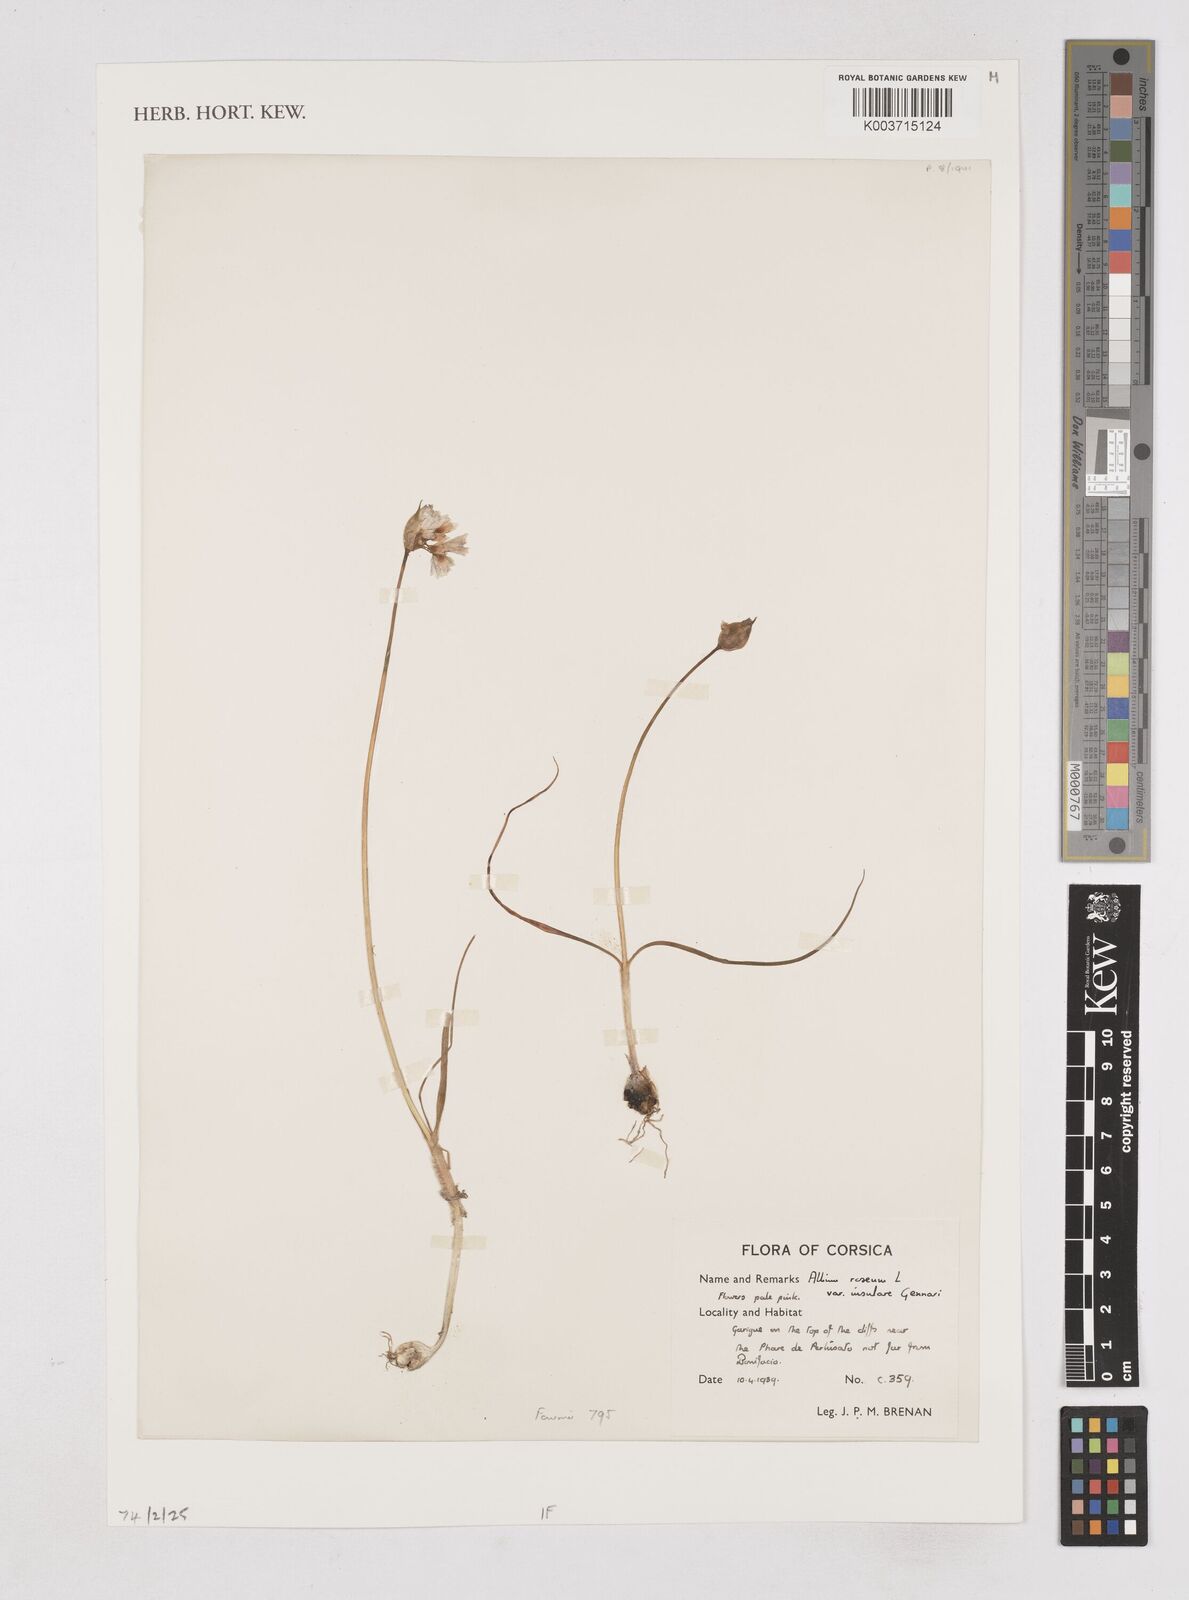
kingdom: Plantae
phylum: Tracheophyta
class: Liliopsida
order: Asparagales
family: Amaryllidaceae
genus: Allium
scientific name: Allium roseum
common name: Rosy garlic
